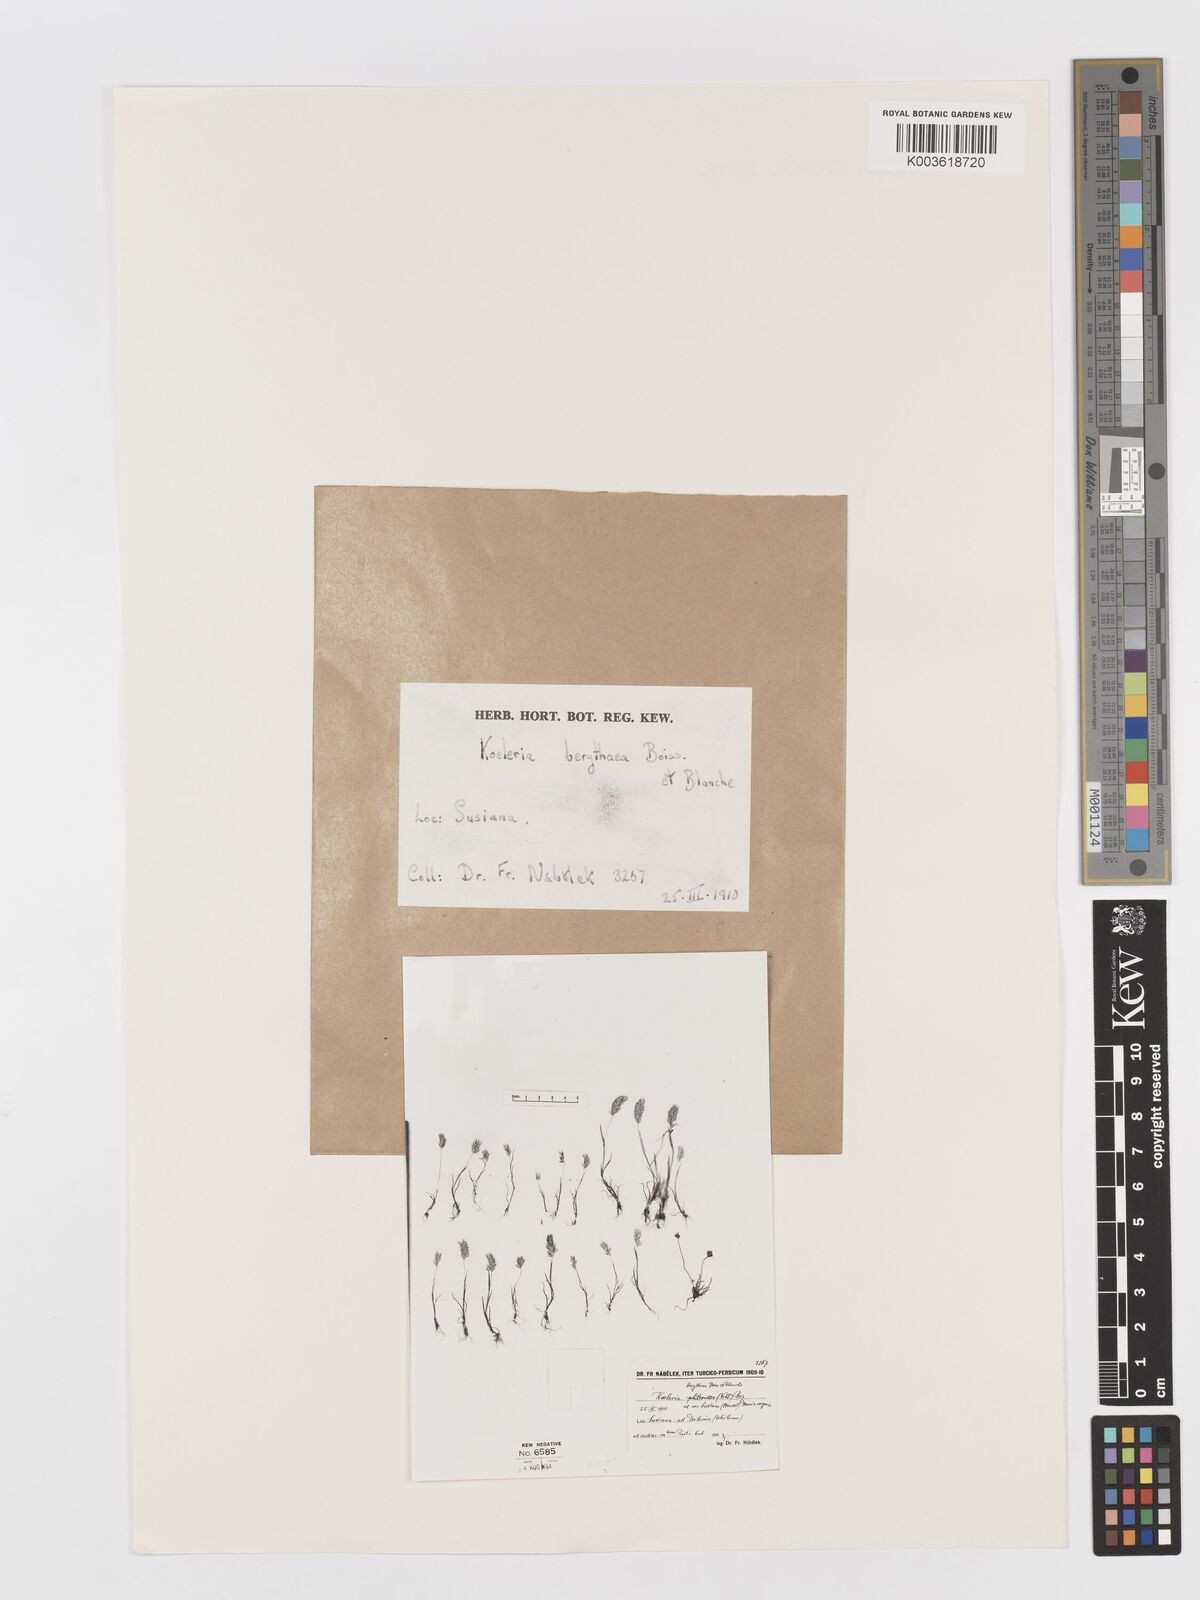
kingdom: Plantae
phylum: Tracheophyta
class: Liliopsida
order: Poales
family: Poaceae
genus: Rostraria
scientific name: Rostraria smyrnaea
